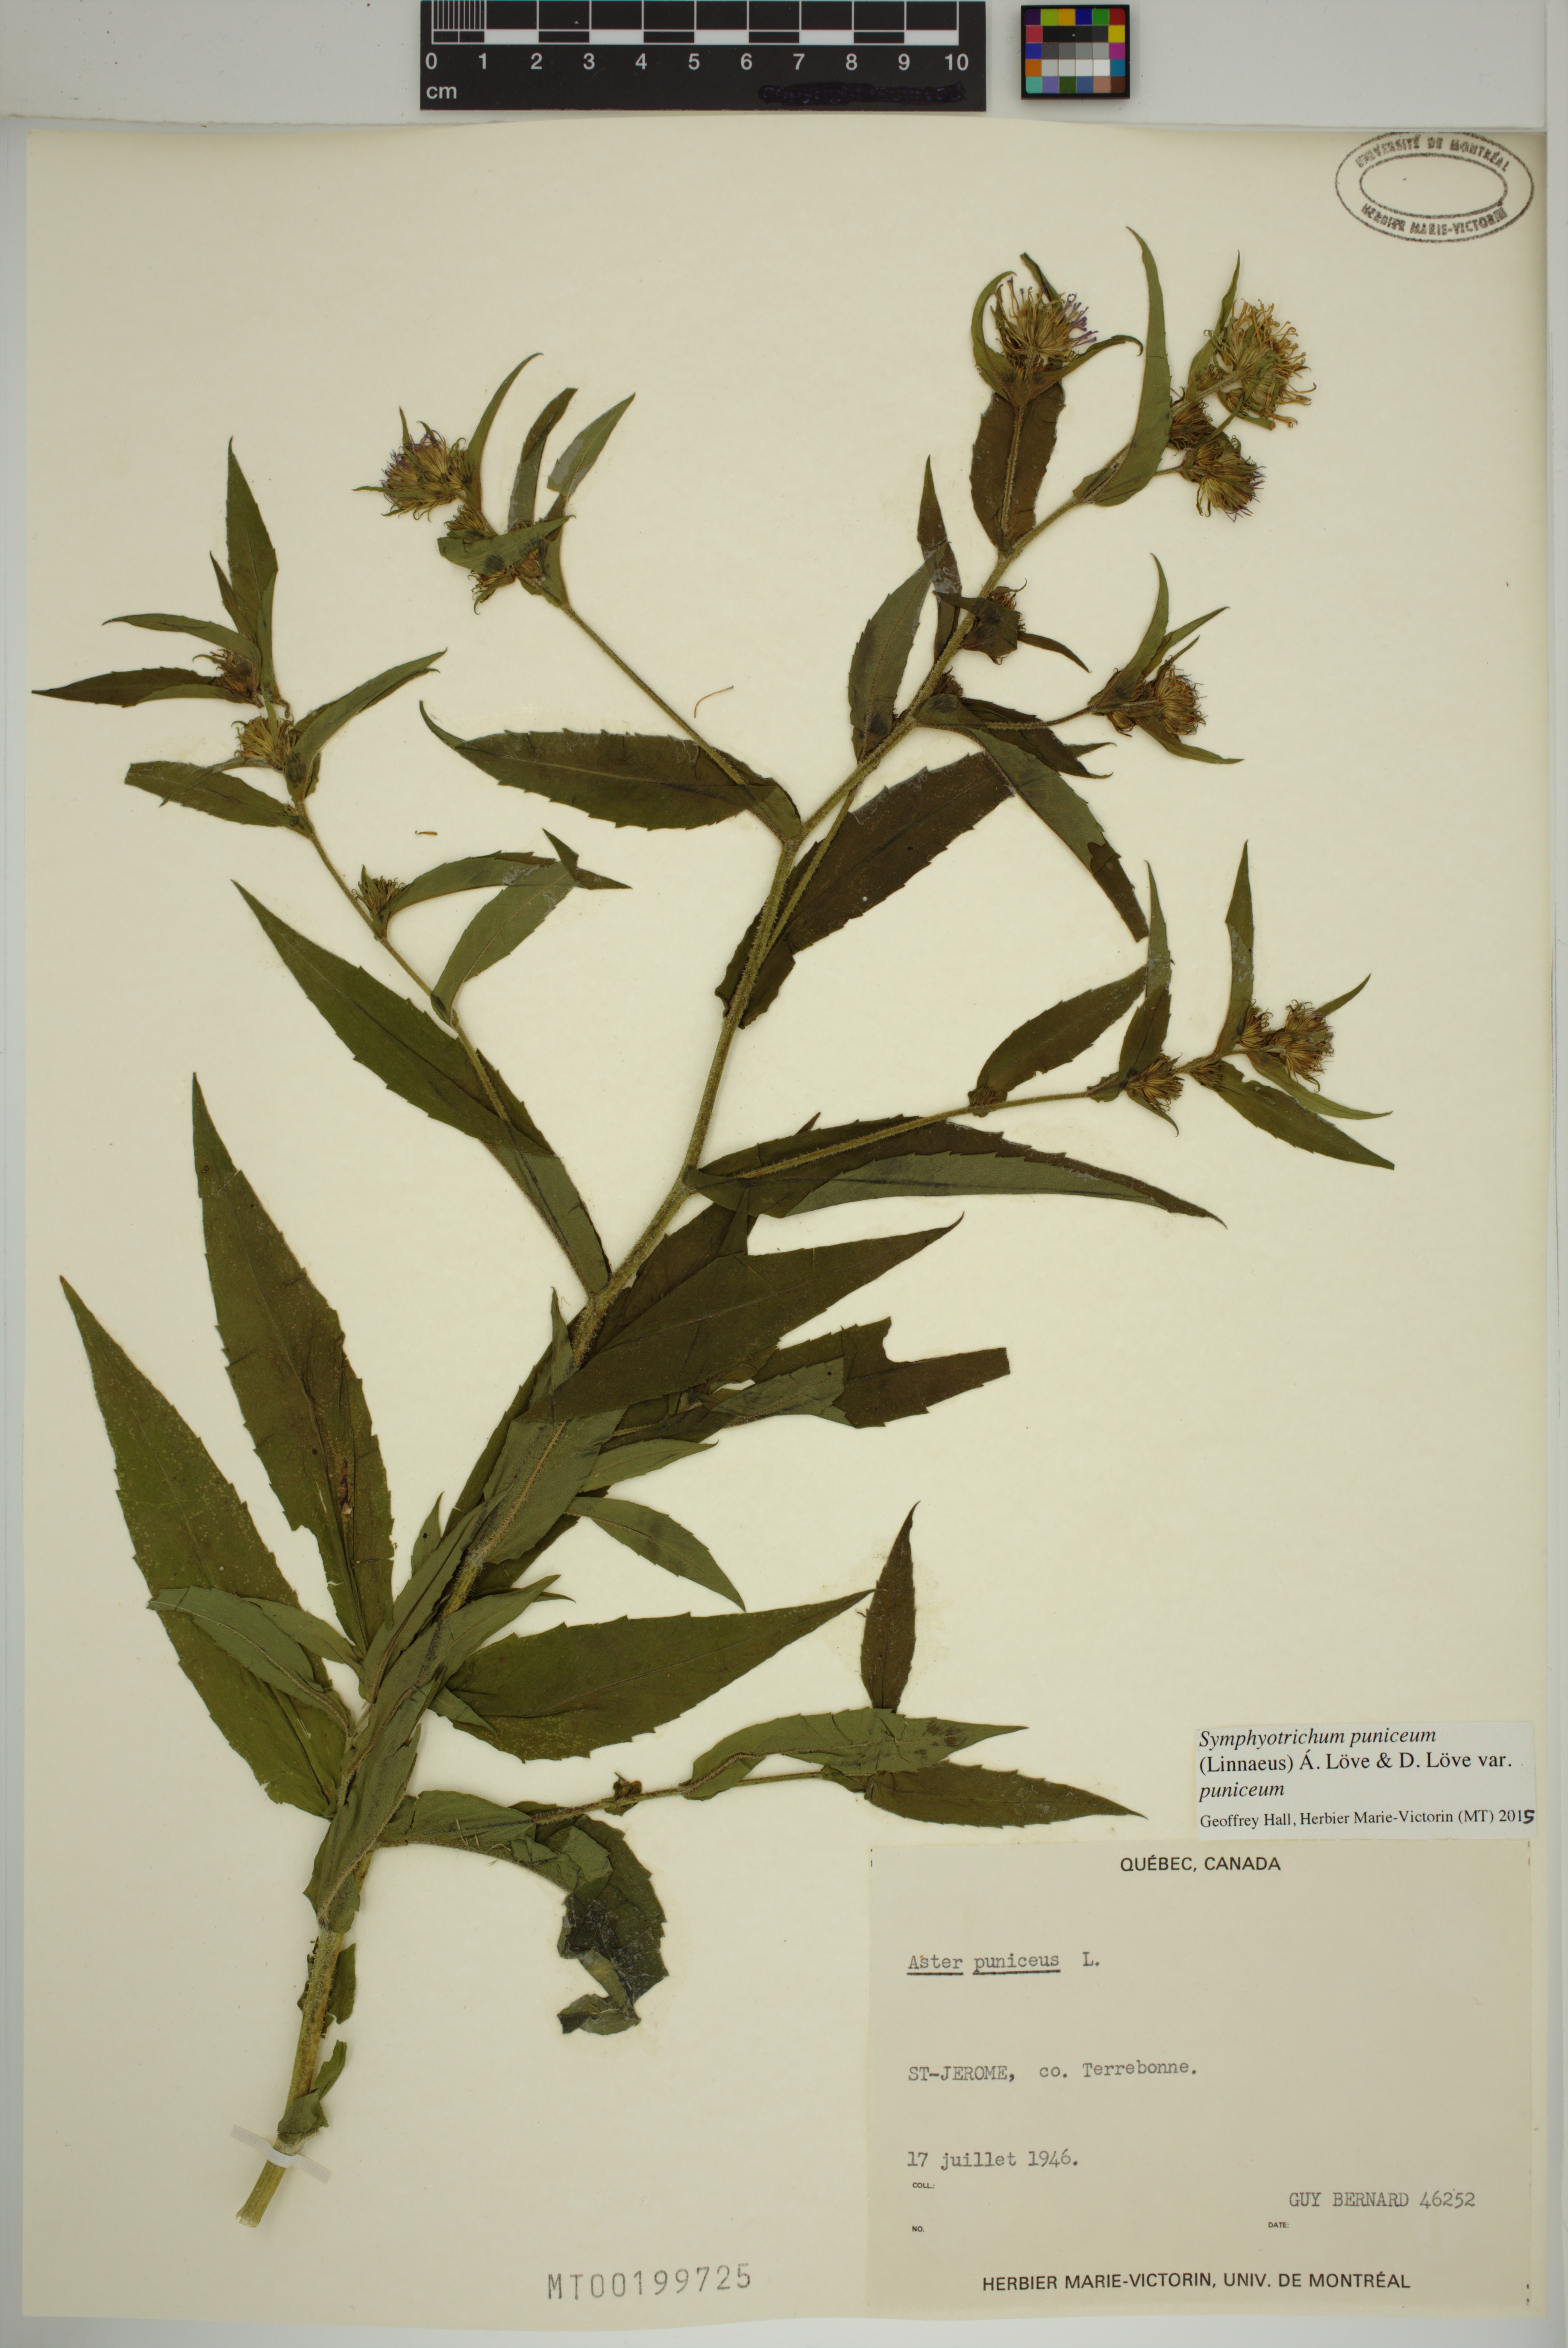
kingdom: Plantae
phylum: Tracheophyta
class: Magnoliopsida
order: Asterales
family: Asteraceae
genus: Symphyotrichum
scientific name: Symphyotrichum puniceum
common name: Bog aster
